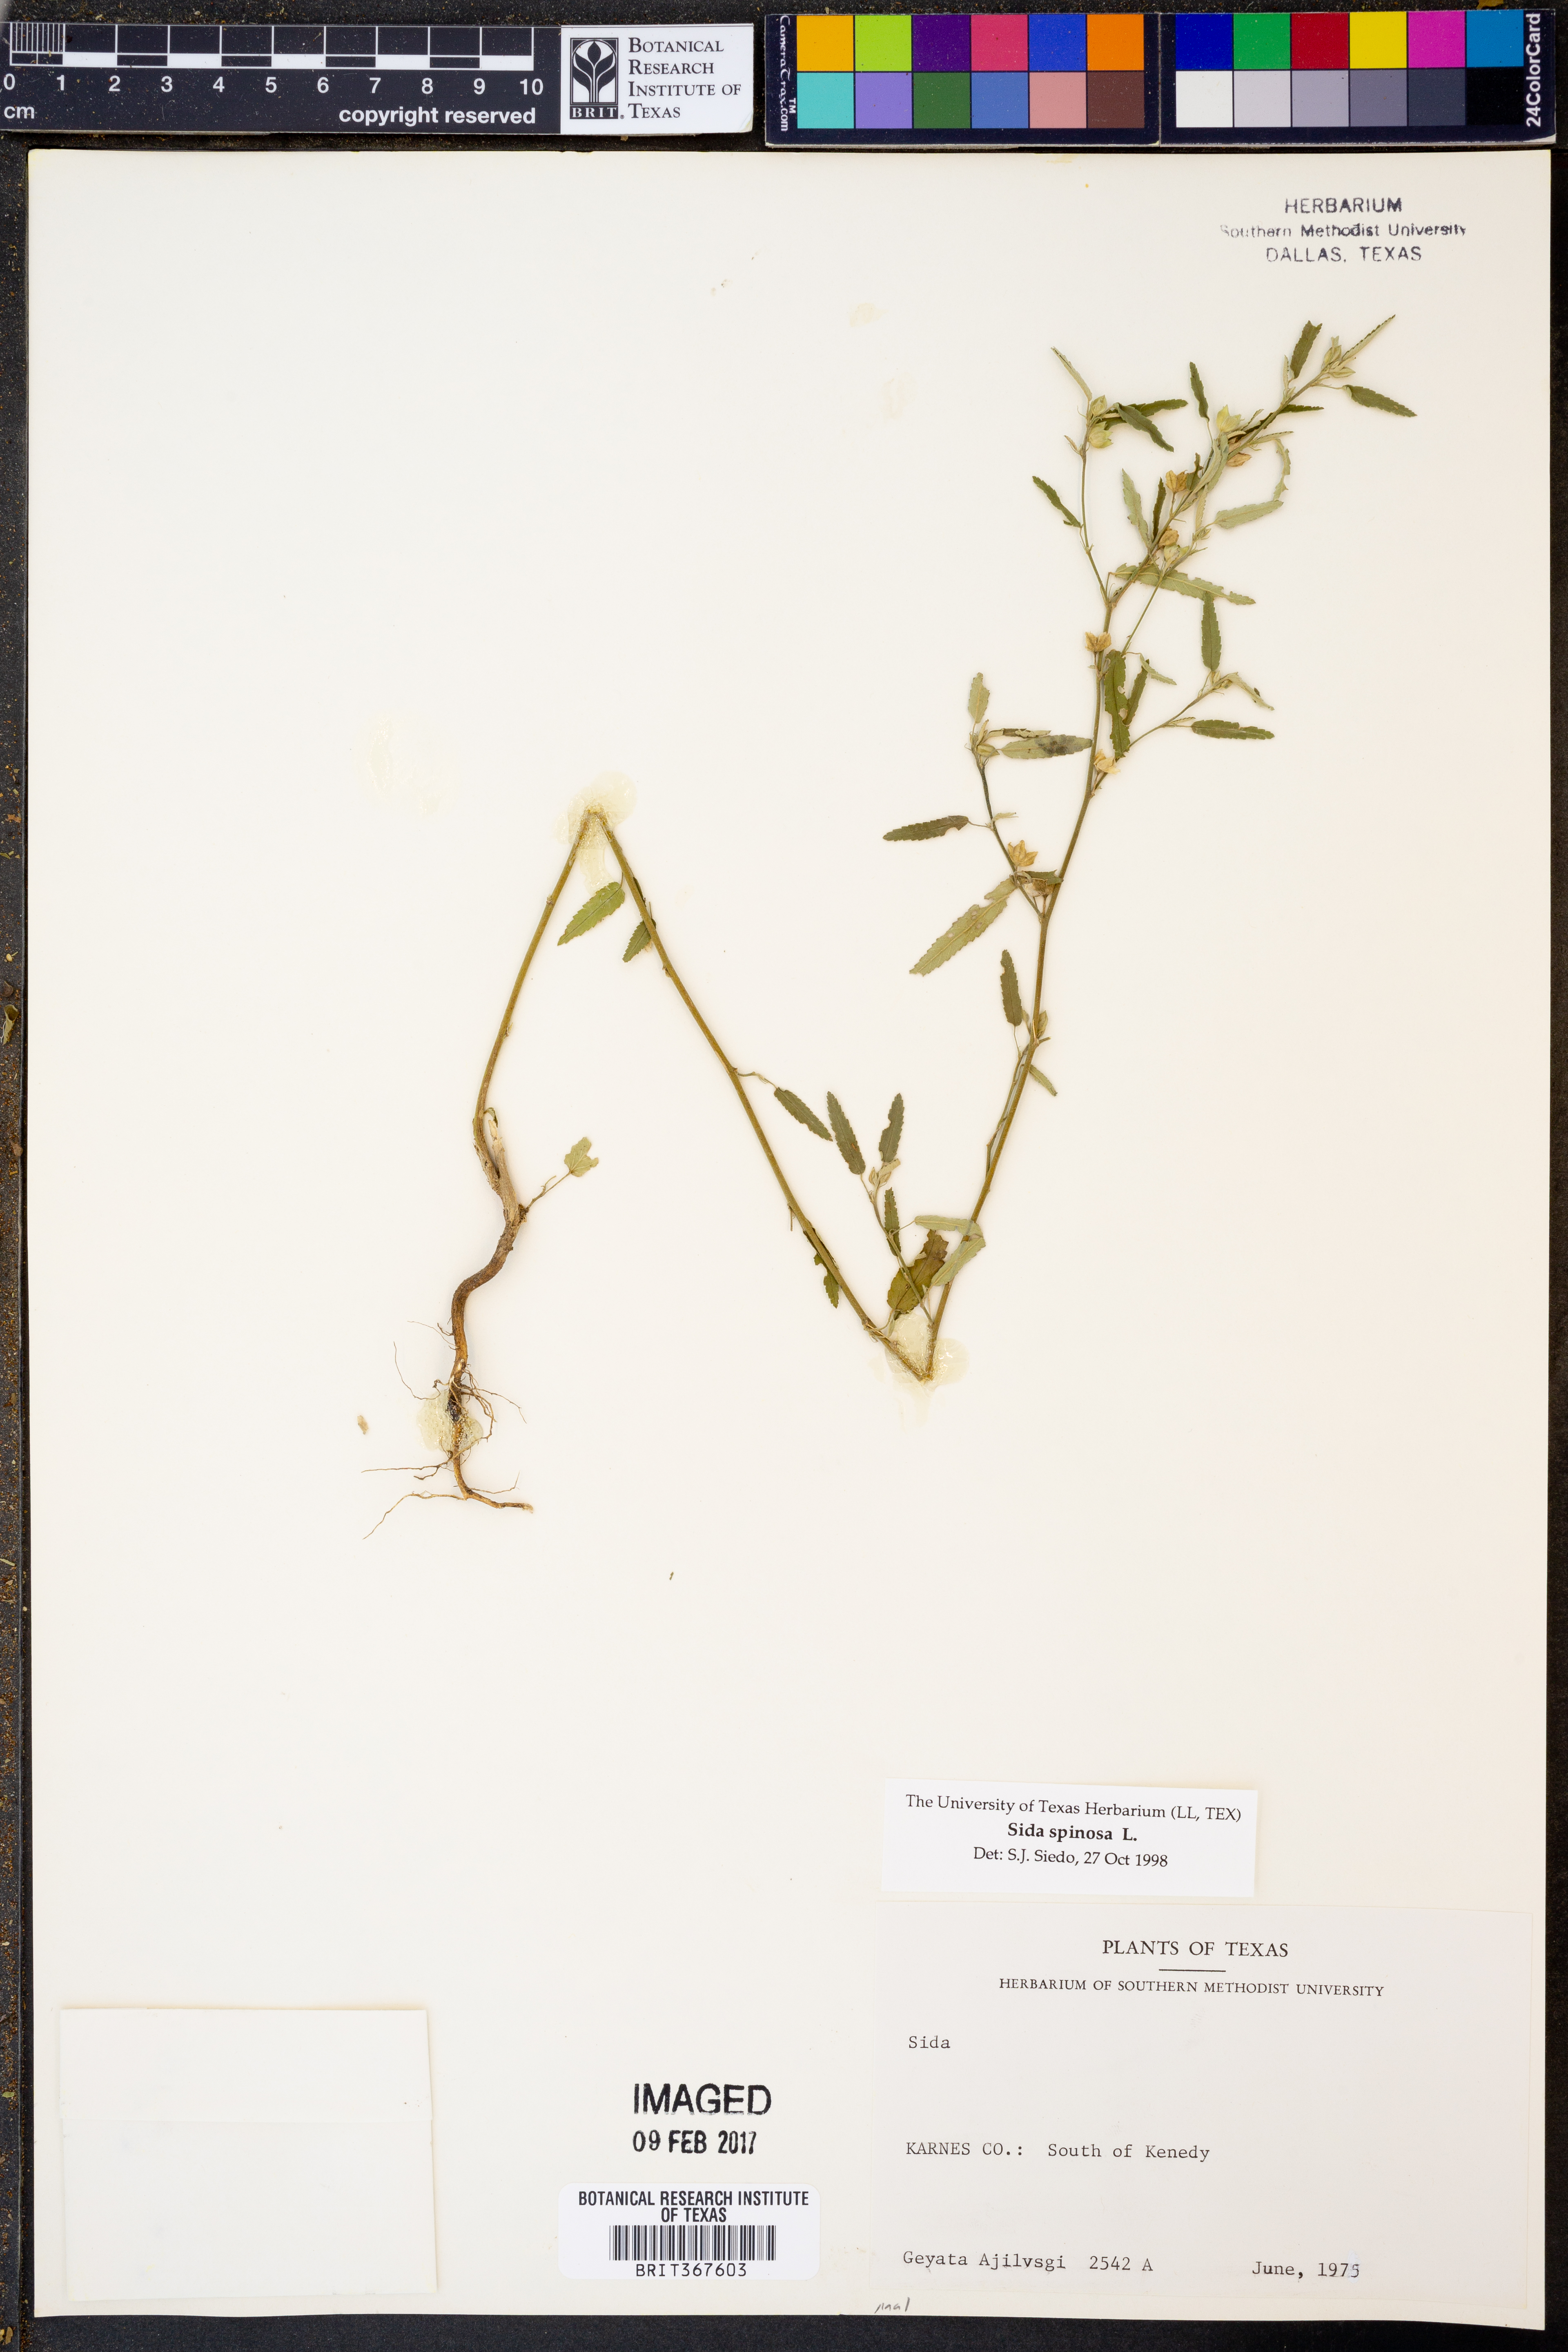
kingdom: Plantae
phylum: Tracheophyta
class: Magnoliopsida
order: Malvales
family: Malvaceae
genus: Sida
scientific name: Sida spinosa
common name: Prickly fanpetals
